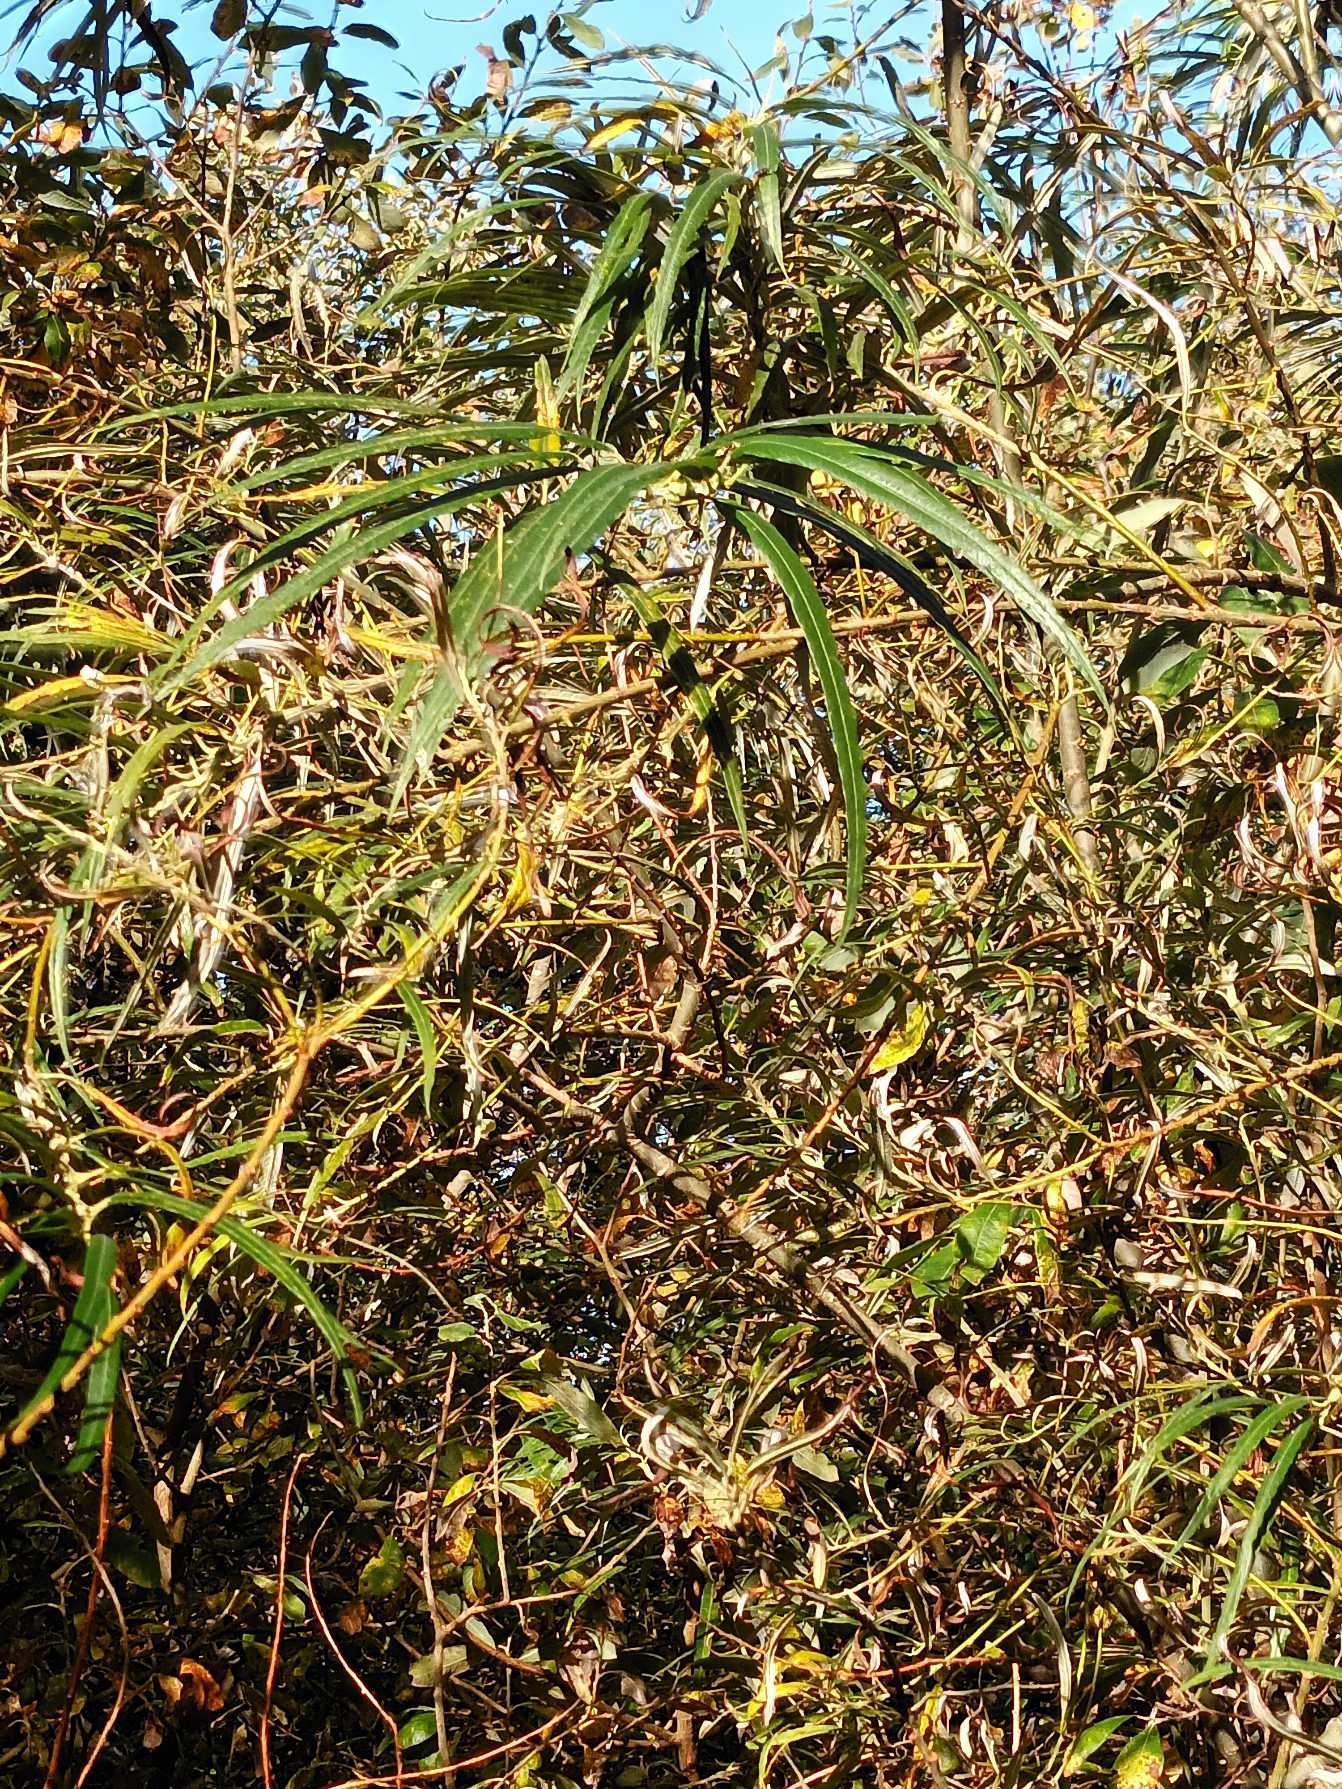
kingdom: Plantae
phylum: Tracheophyta
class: Magnoliopsida
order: Malpighiales
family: Salicaceae
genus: Salix
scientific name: Salix viminalis
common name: Bånd-pil
